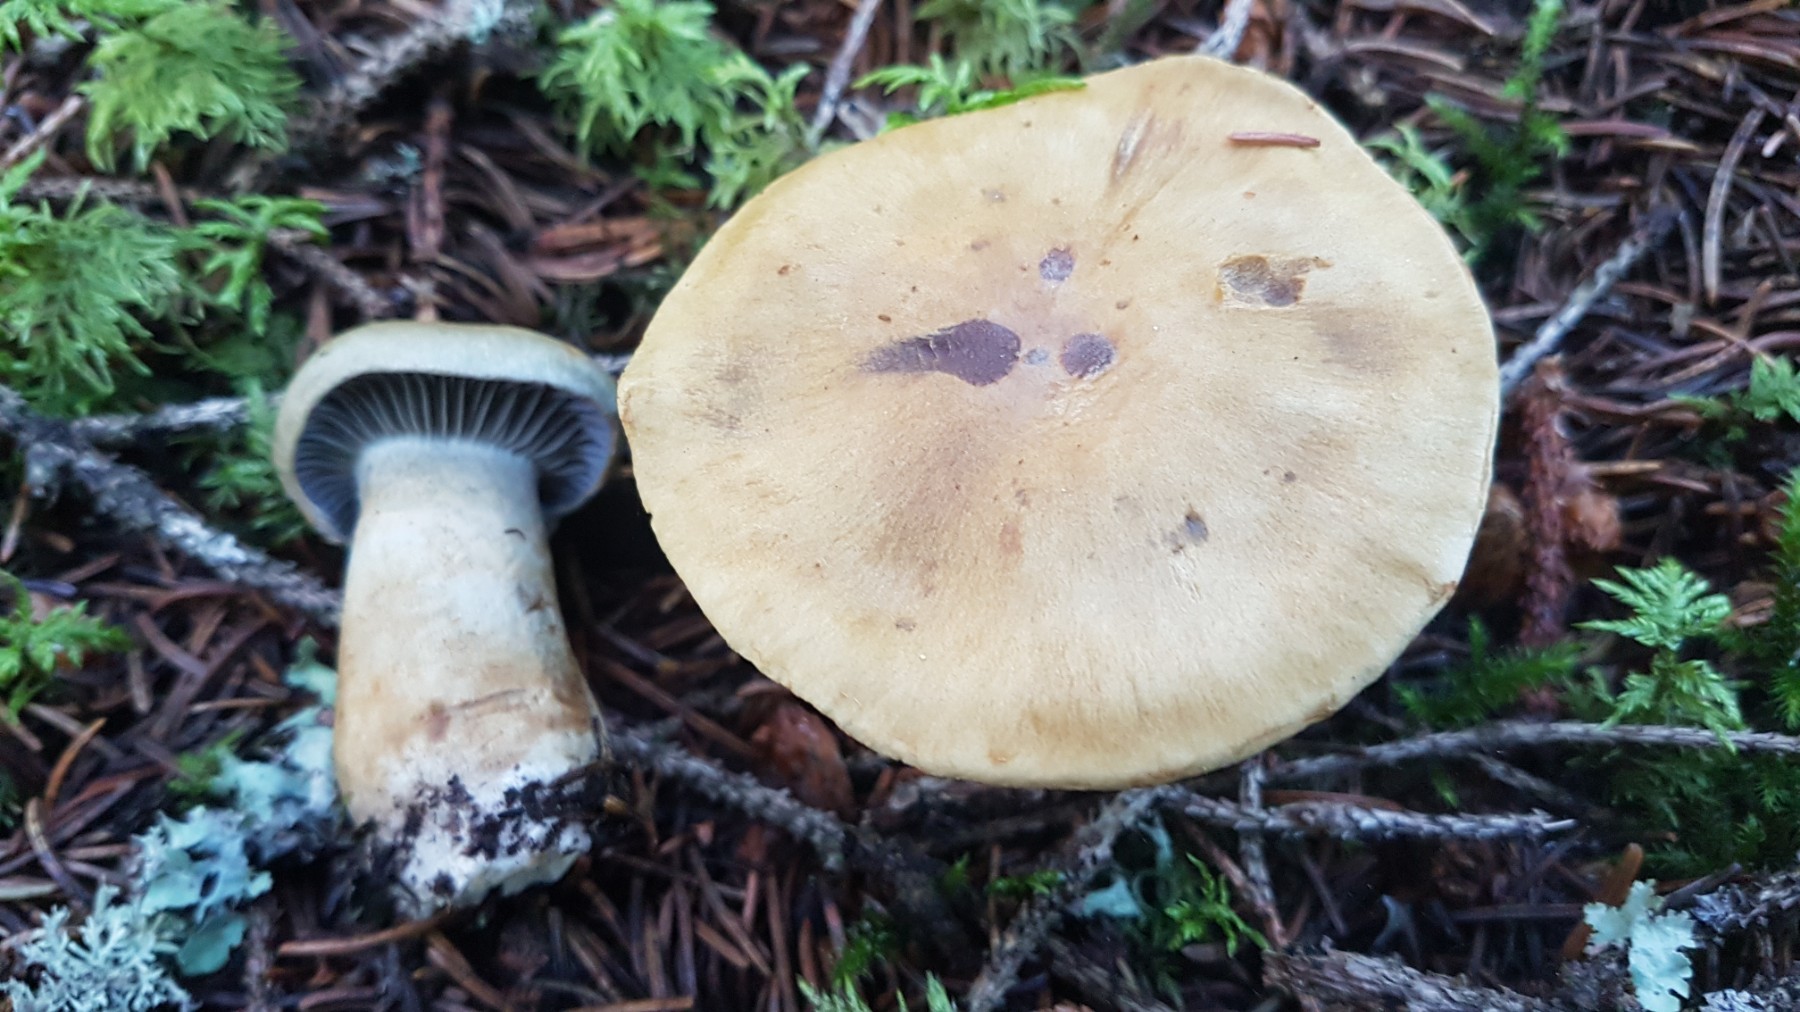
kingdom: Fungi
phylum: Basidiomycota
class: Agaricomycetes
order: Agaricales
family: Cortinariaceae
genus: Cortinarius
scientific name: Cortinarius subtortus
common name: olivengul slørhat
